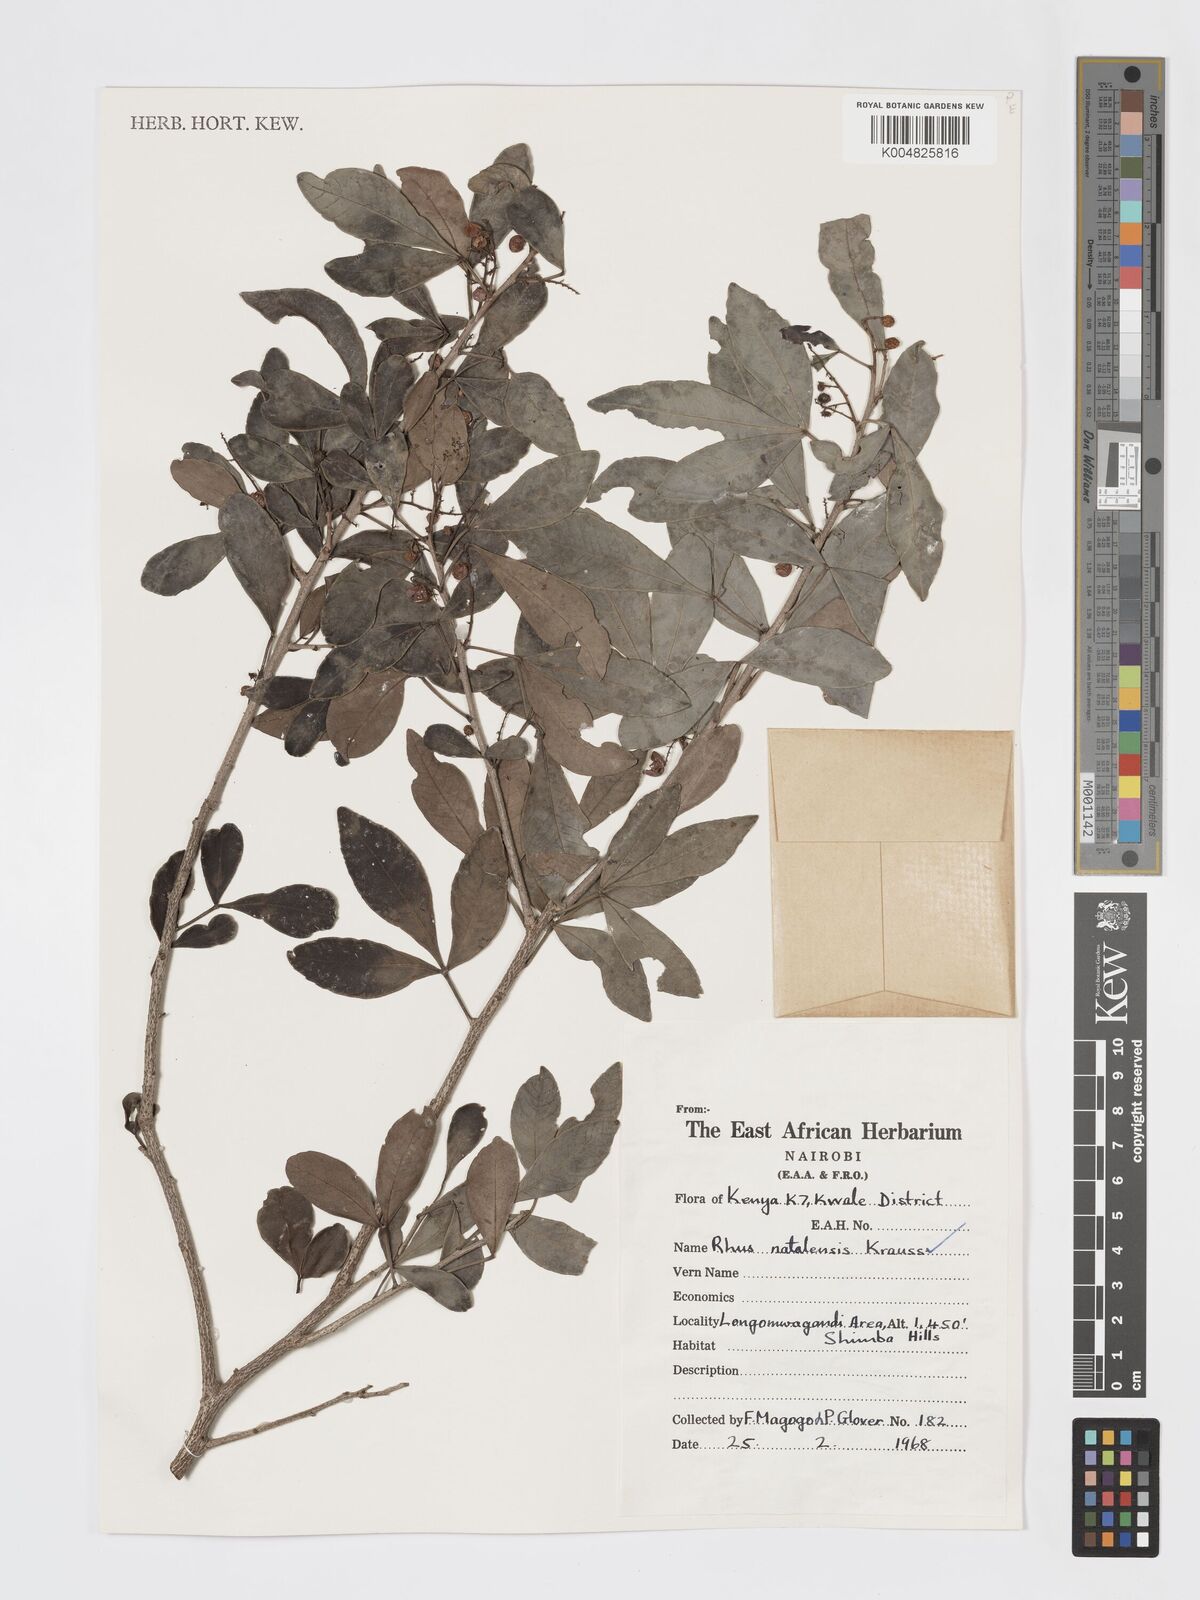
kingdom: Plantae
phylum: Tracheophyta
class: Magnoliopsida
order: Sapindales
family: Anacardiaceae
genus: Searsia
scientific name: Searsia natalensis
